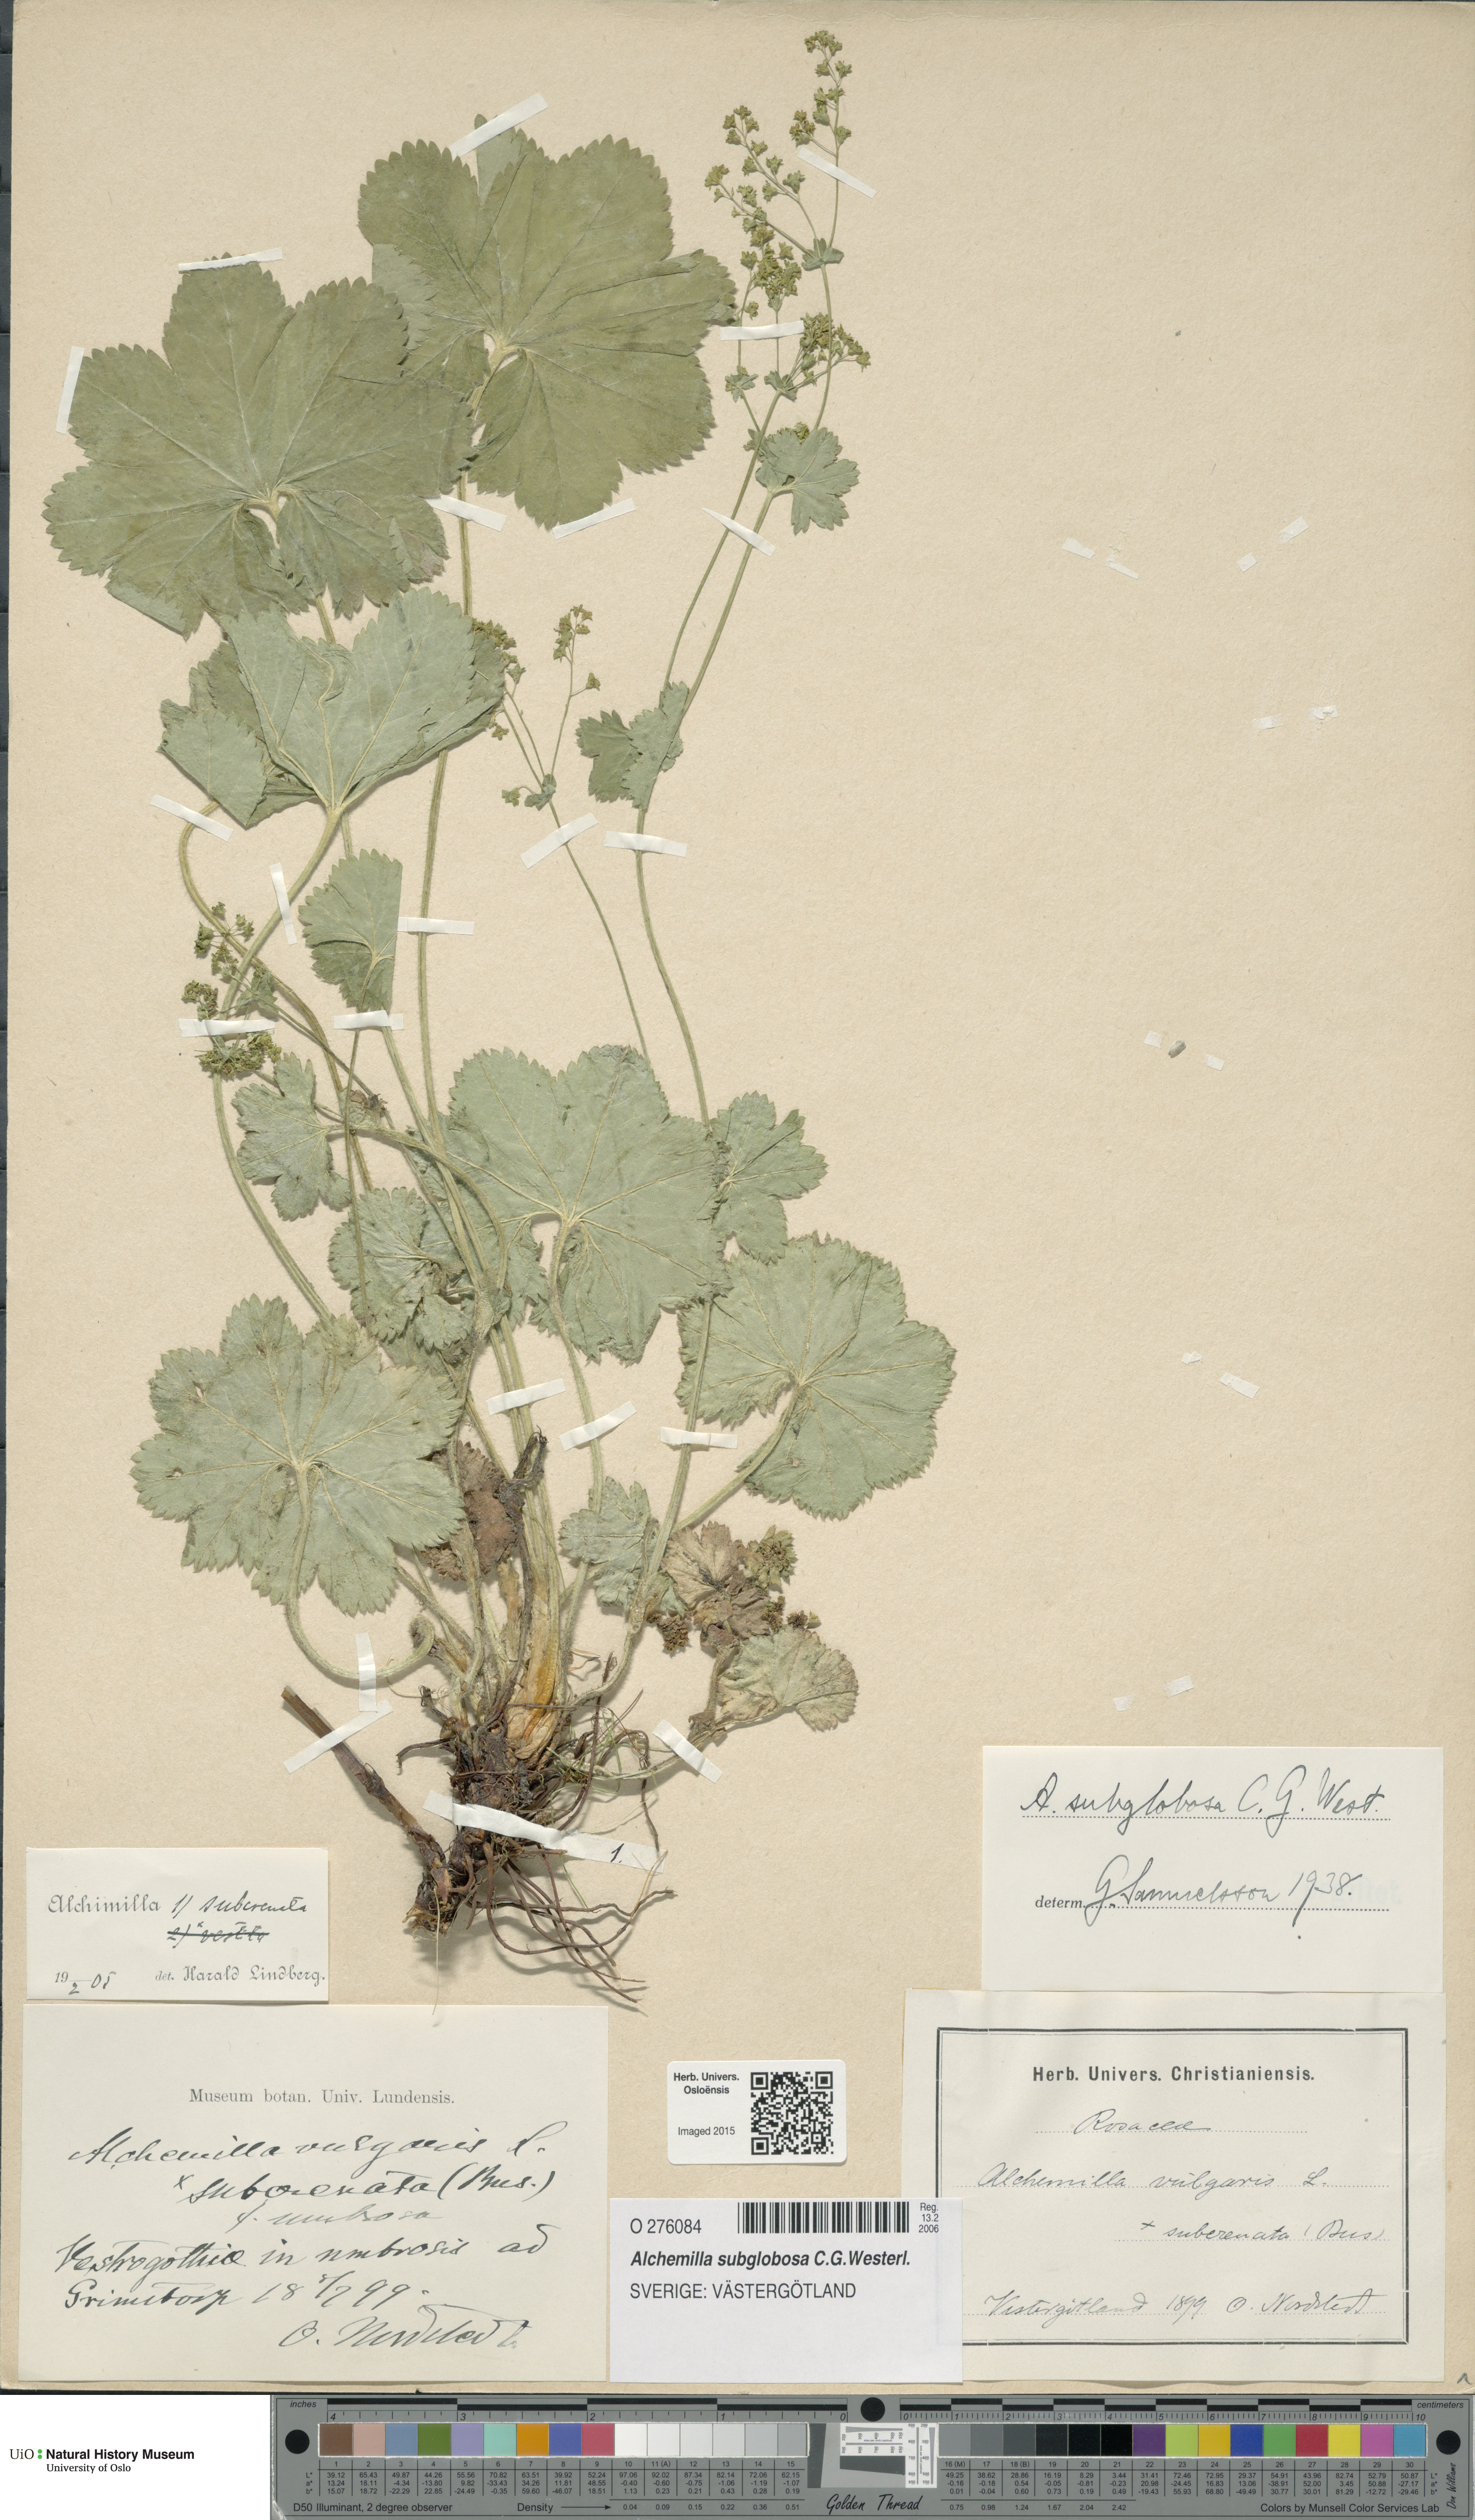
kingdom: Plantae
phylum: Tracheophyta
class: Magnoliopsida
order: Rosales
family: Rosaceae
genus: Alchemilla
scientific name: Alchemilla subglobosa
